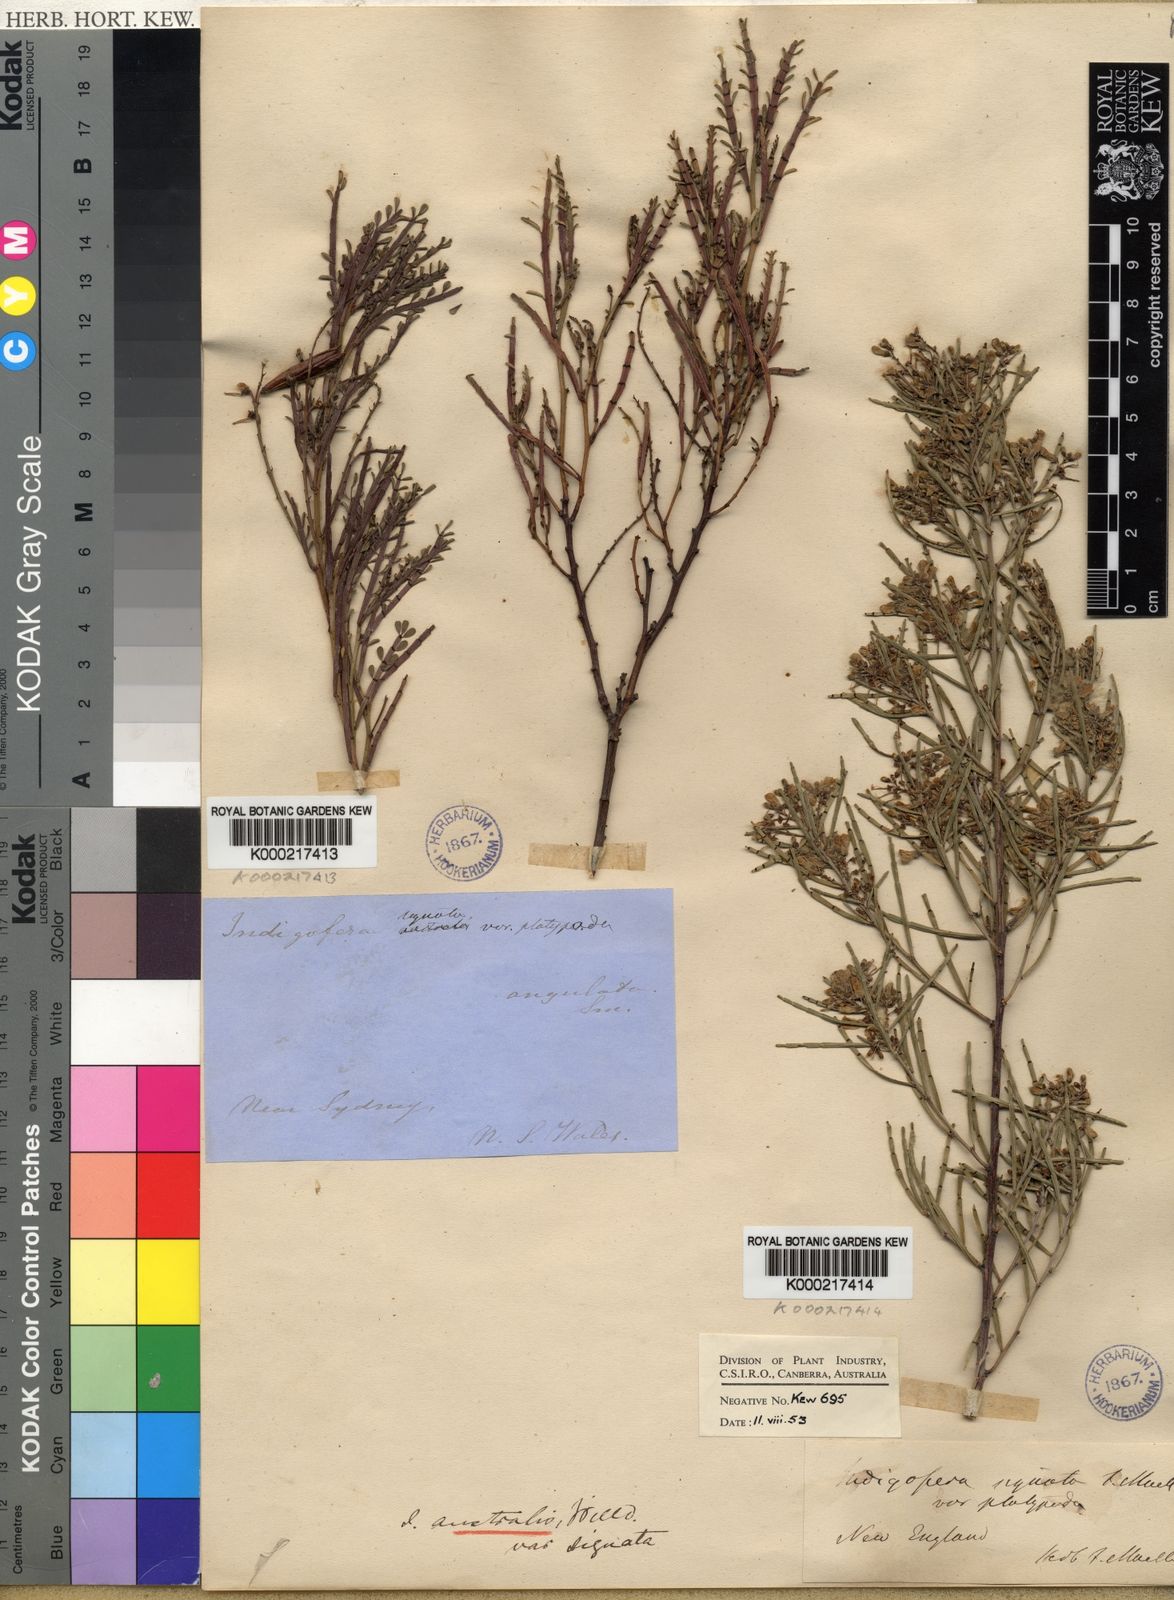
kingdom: Plantae
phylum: Tracheophyta
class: Magnoliopsida
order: Fabales
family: Fabaceae
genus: Indigofera
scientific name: Indigofera adesmiifolia
